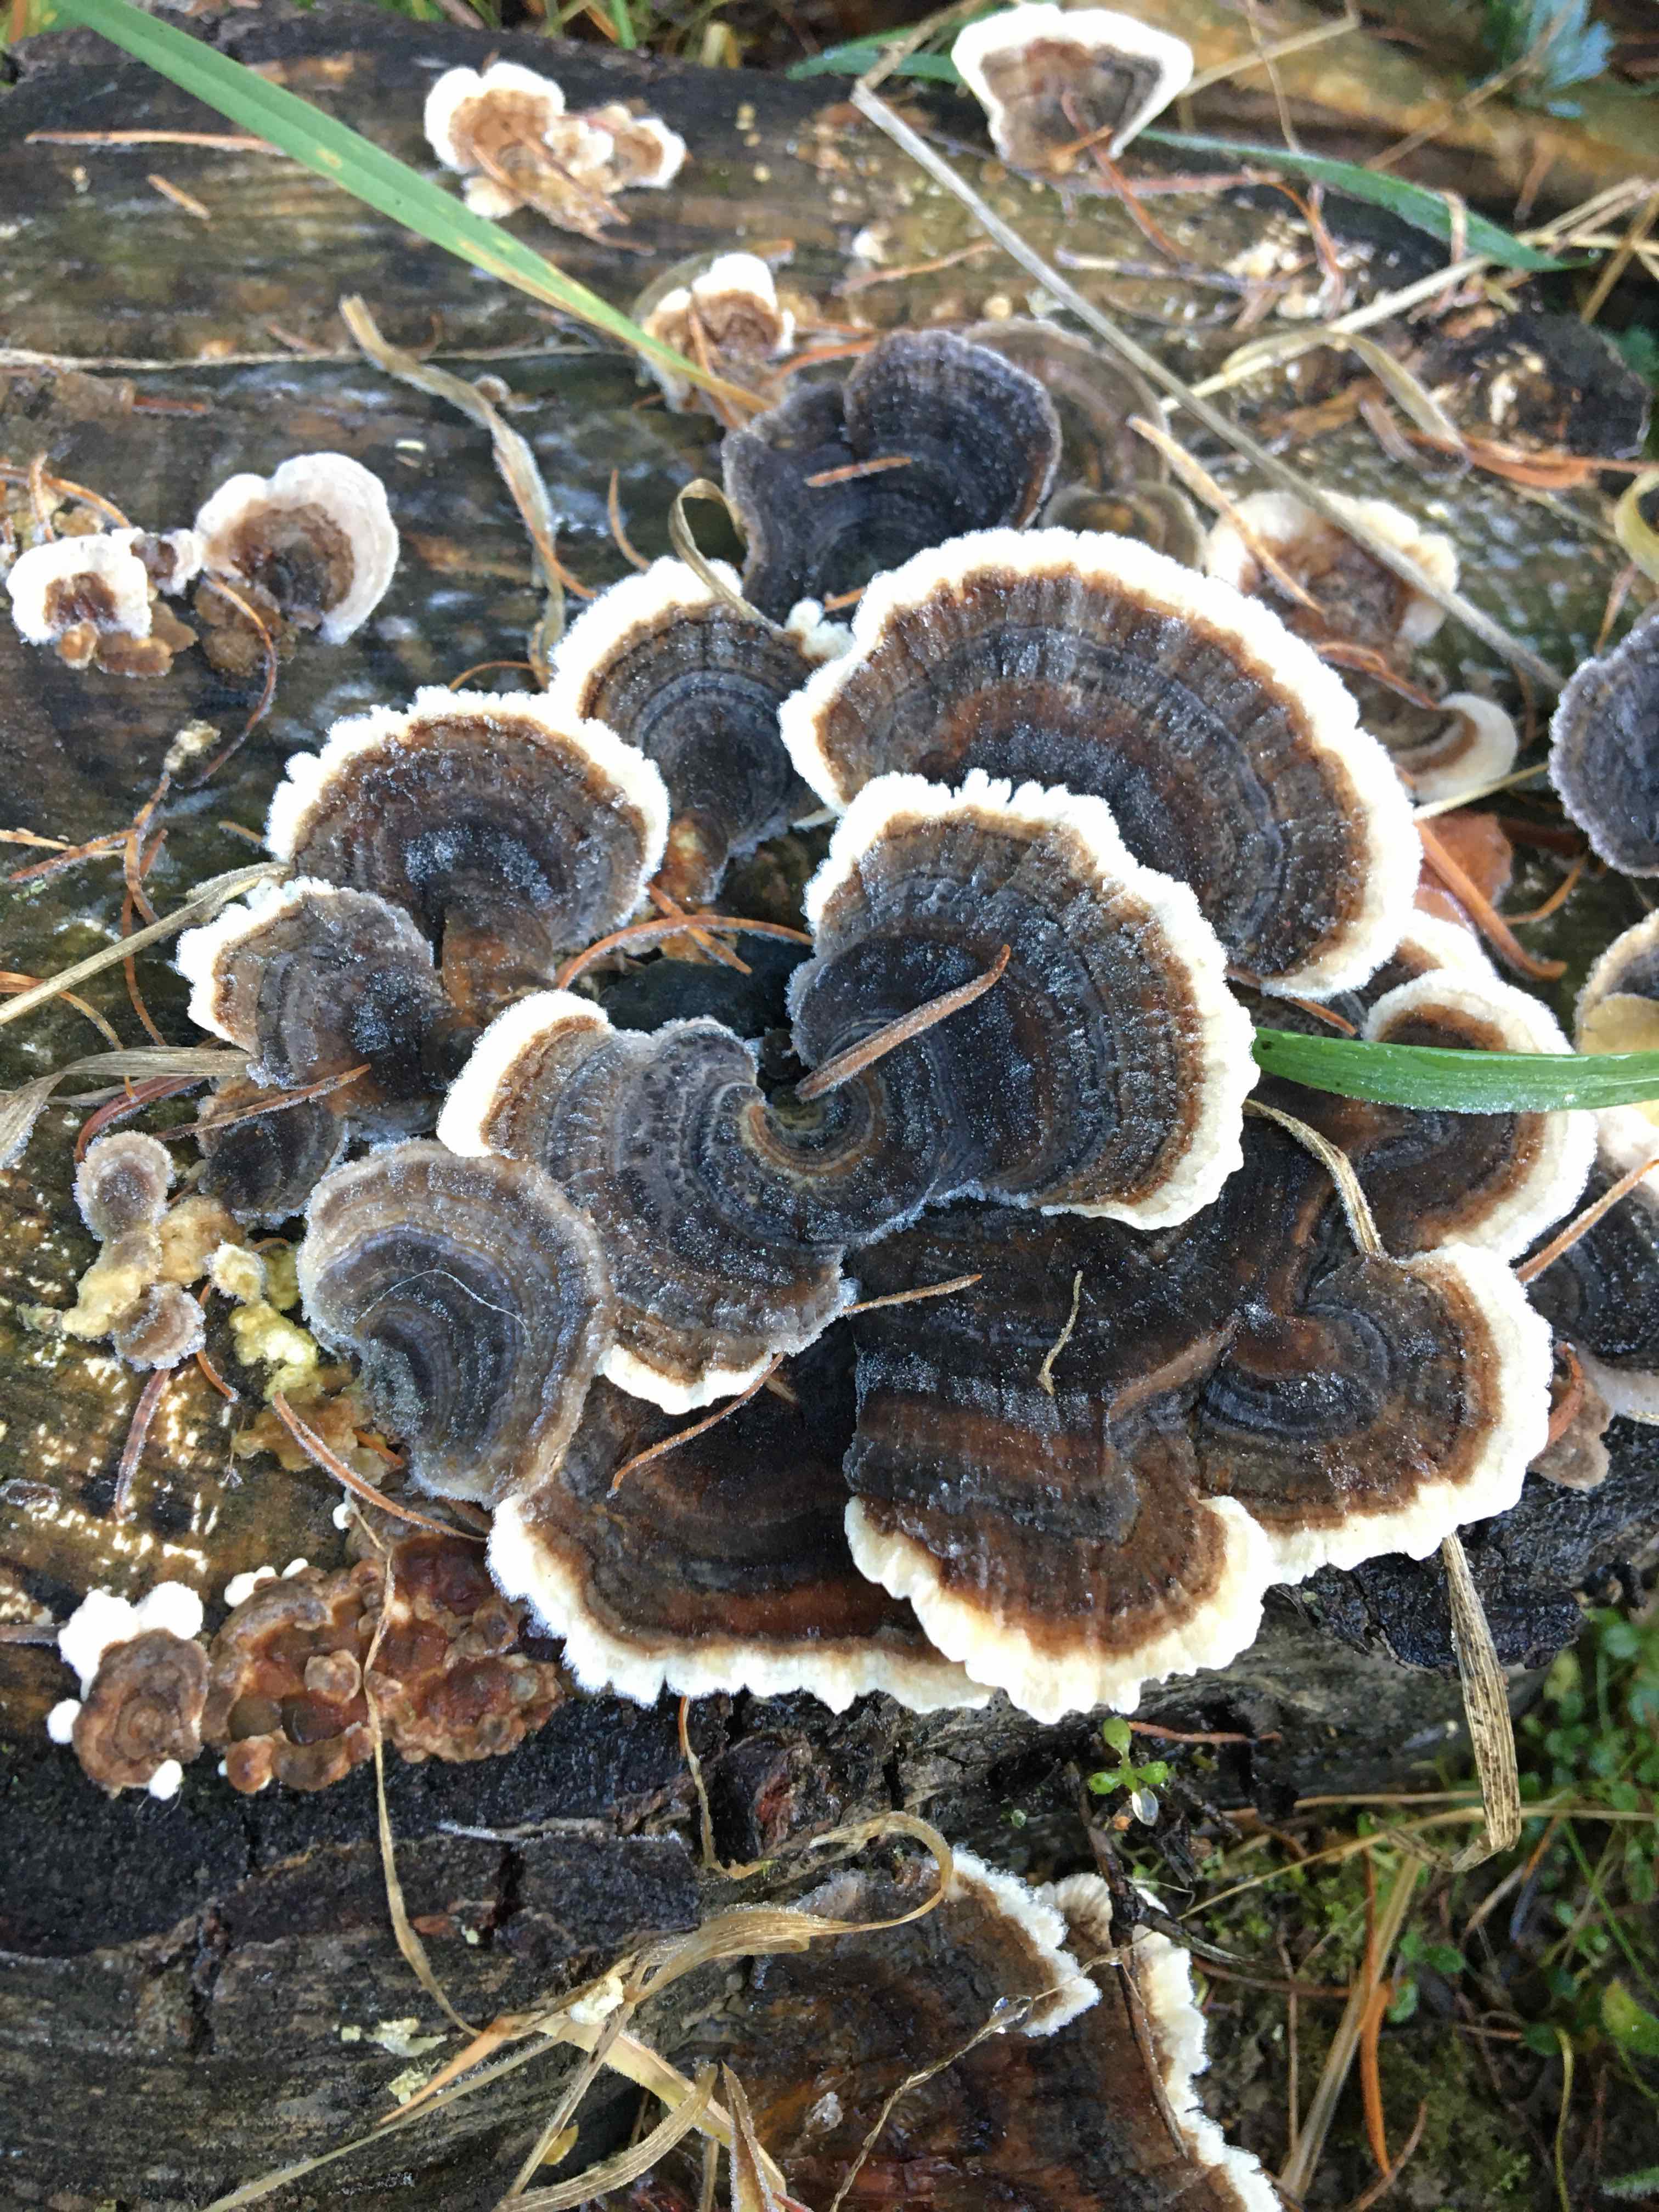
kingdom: Fungi
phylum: Basidiomycota
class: Agaricomycetes
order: Polyporales
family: Polyporaceae
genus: Trametes
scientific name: Trametes versicolor
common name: broget læderporesvamp
